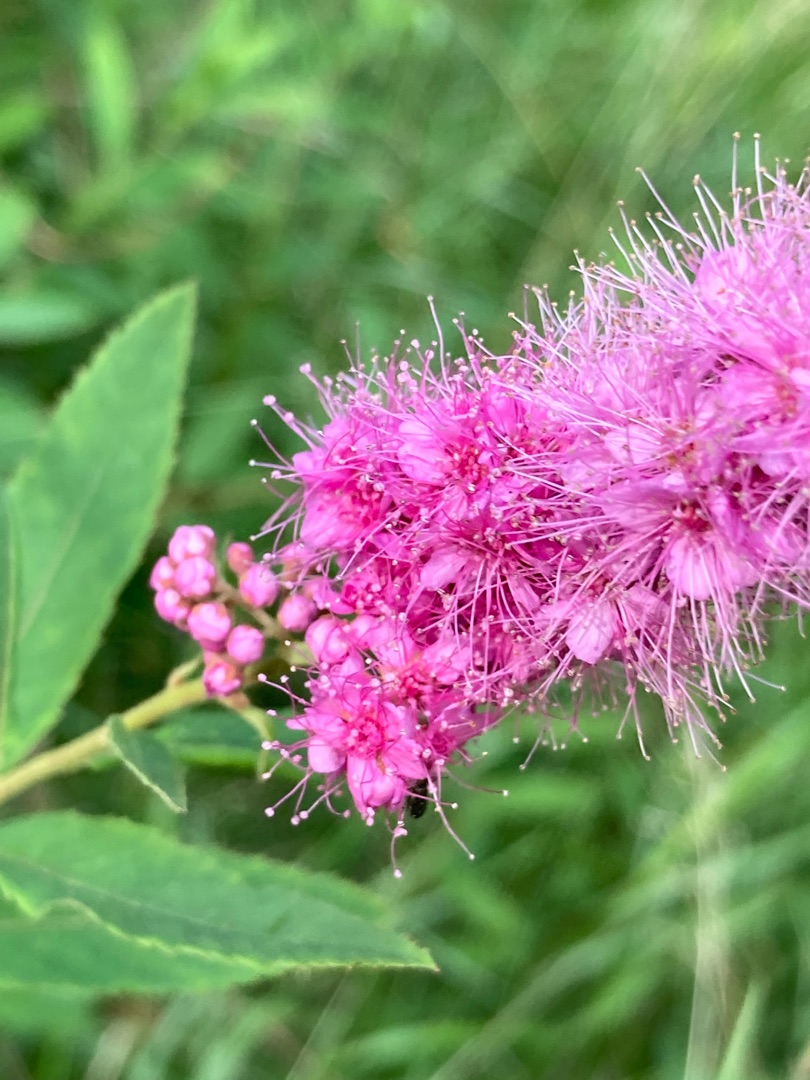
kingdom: Plantae
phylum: Tracheophyta
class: Magnoliopsida
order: Rosales
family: Rosaceae
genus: Spiraea
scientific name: Spiraea billardii
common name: Klase-spiræa
